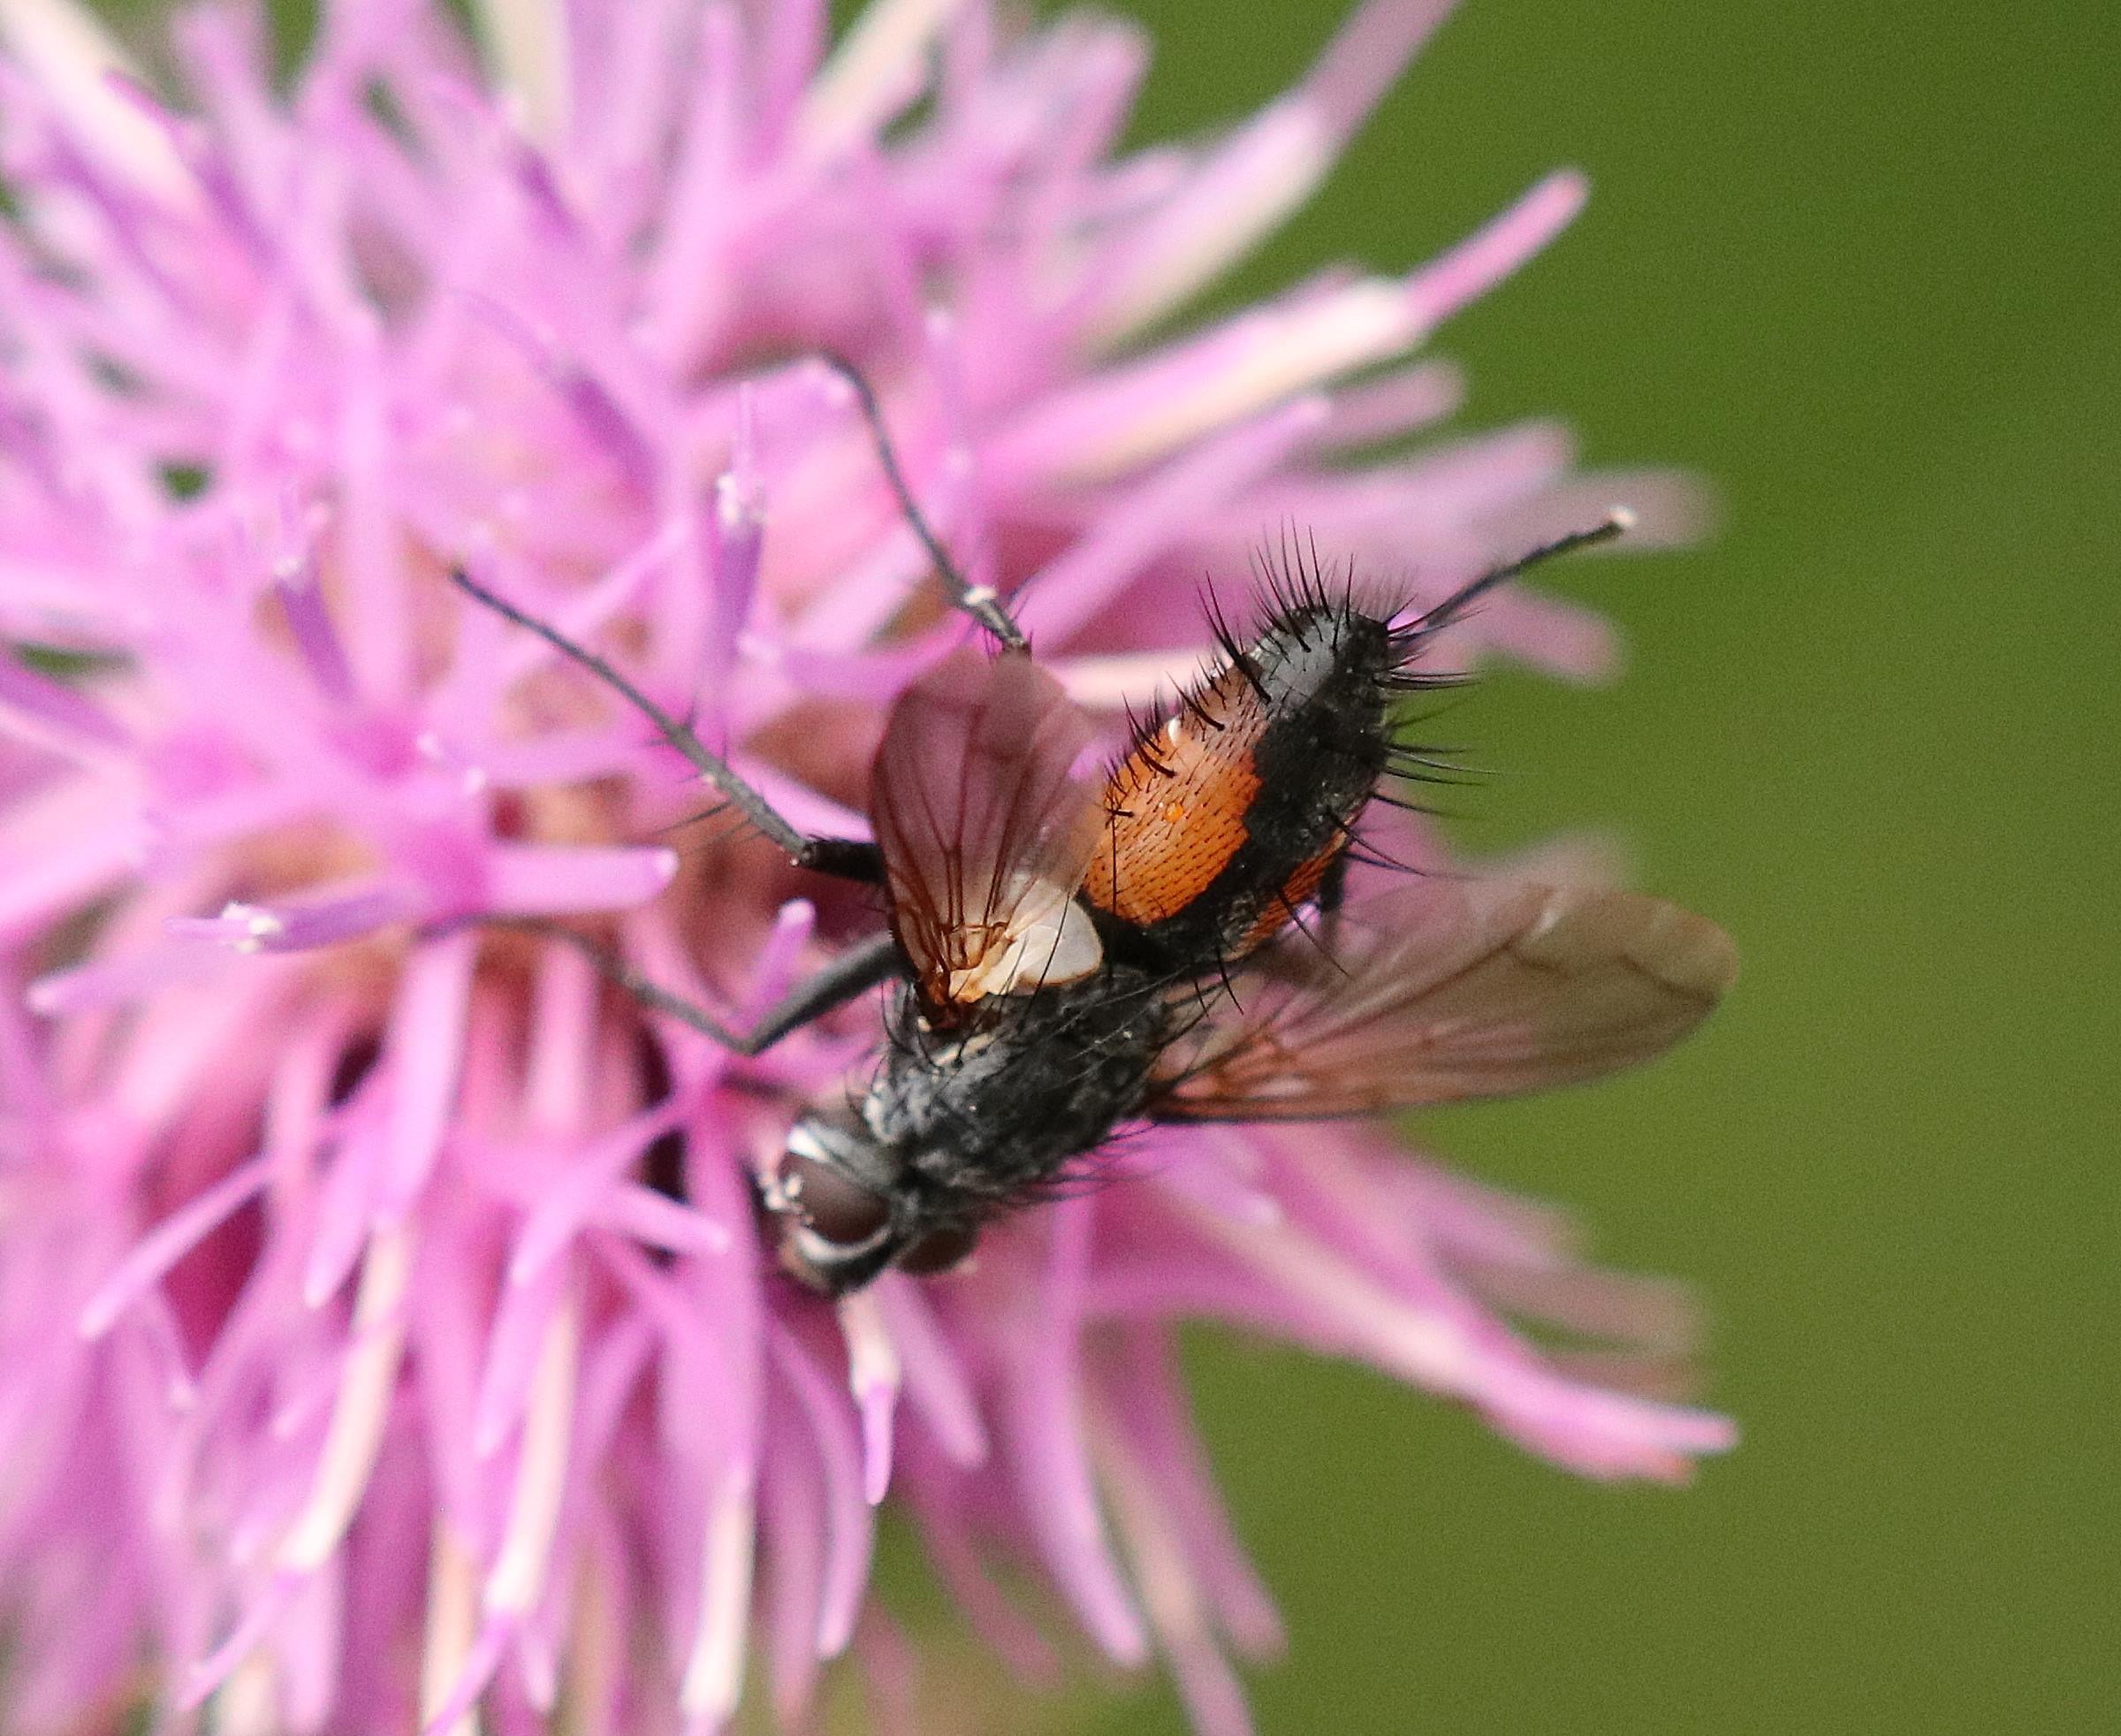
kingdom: Animalia
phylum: Arthropoda
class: Insecta
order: Diptera
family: Tachinidae
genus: Eriothrix
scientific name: Eriothrix rufomaculatus
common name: Rød snylteflue
